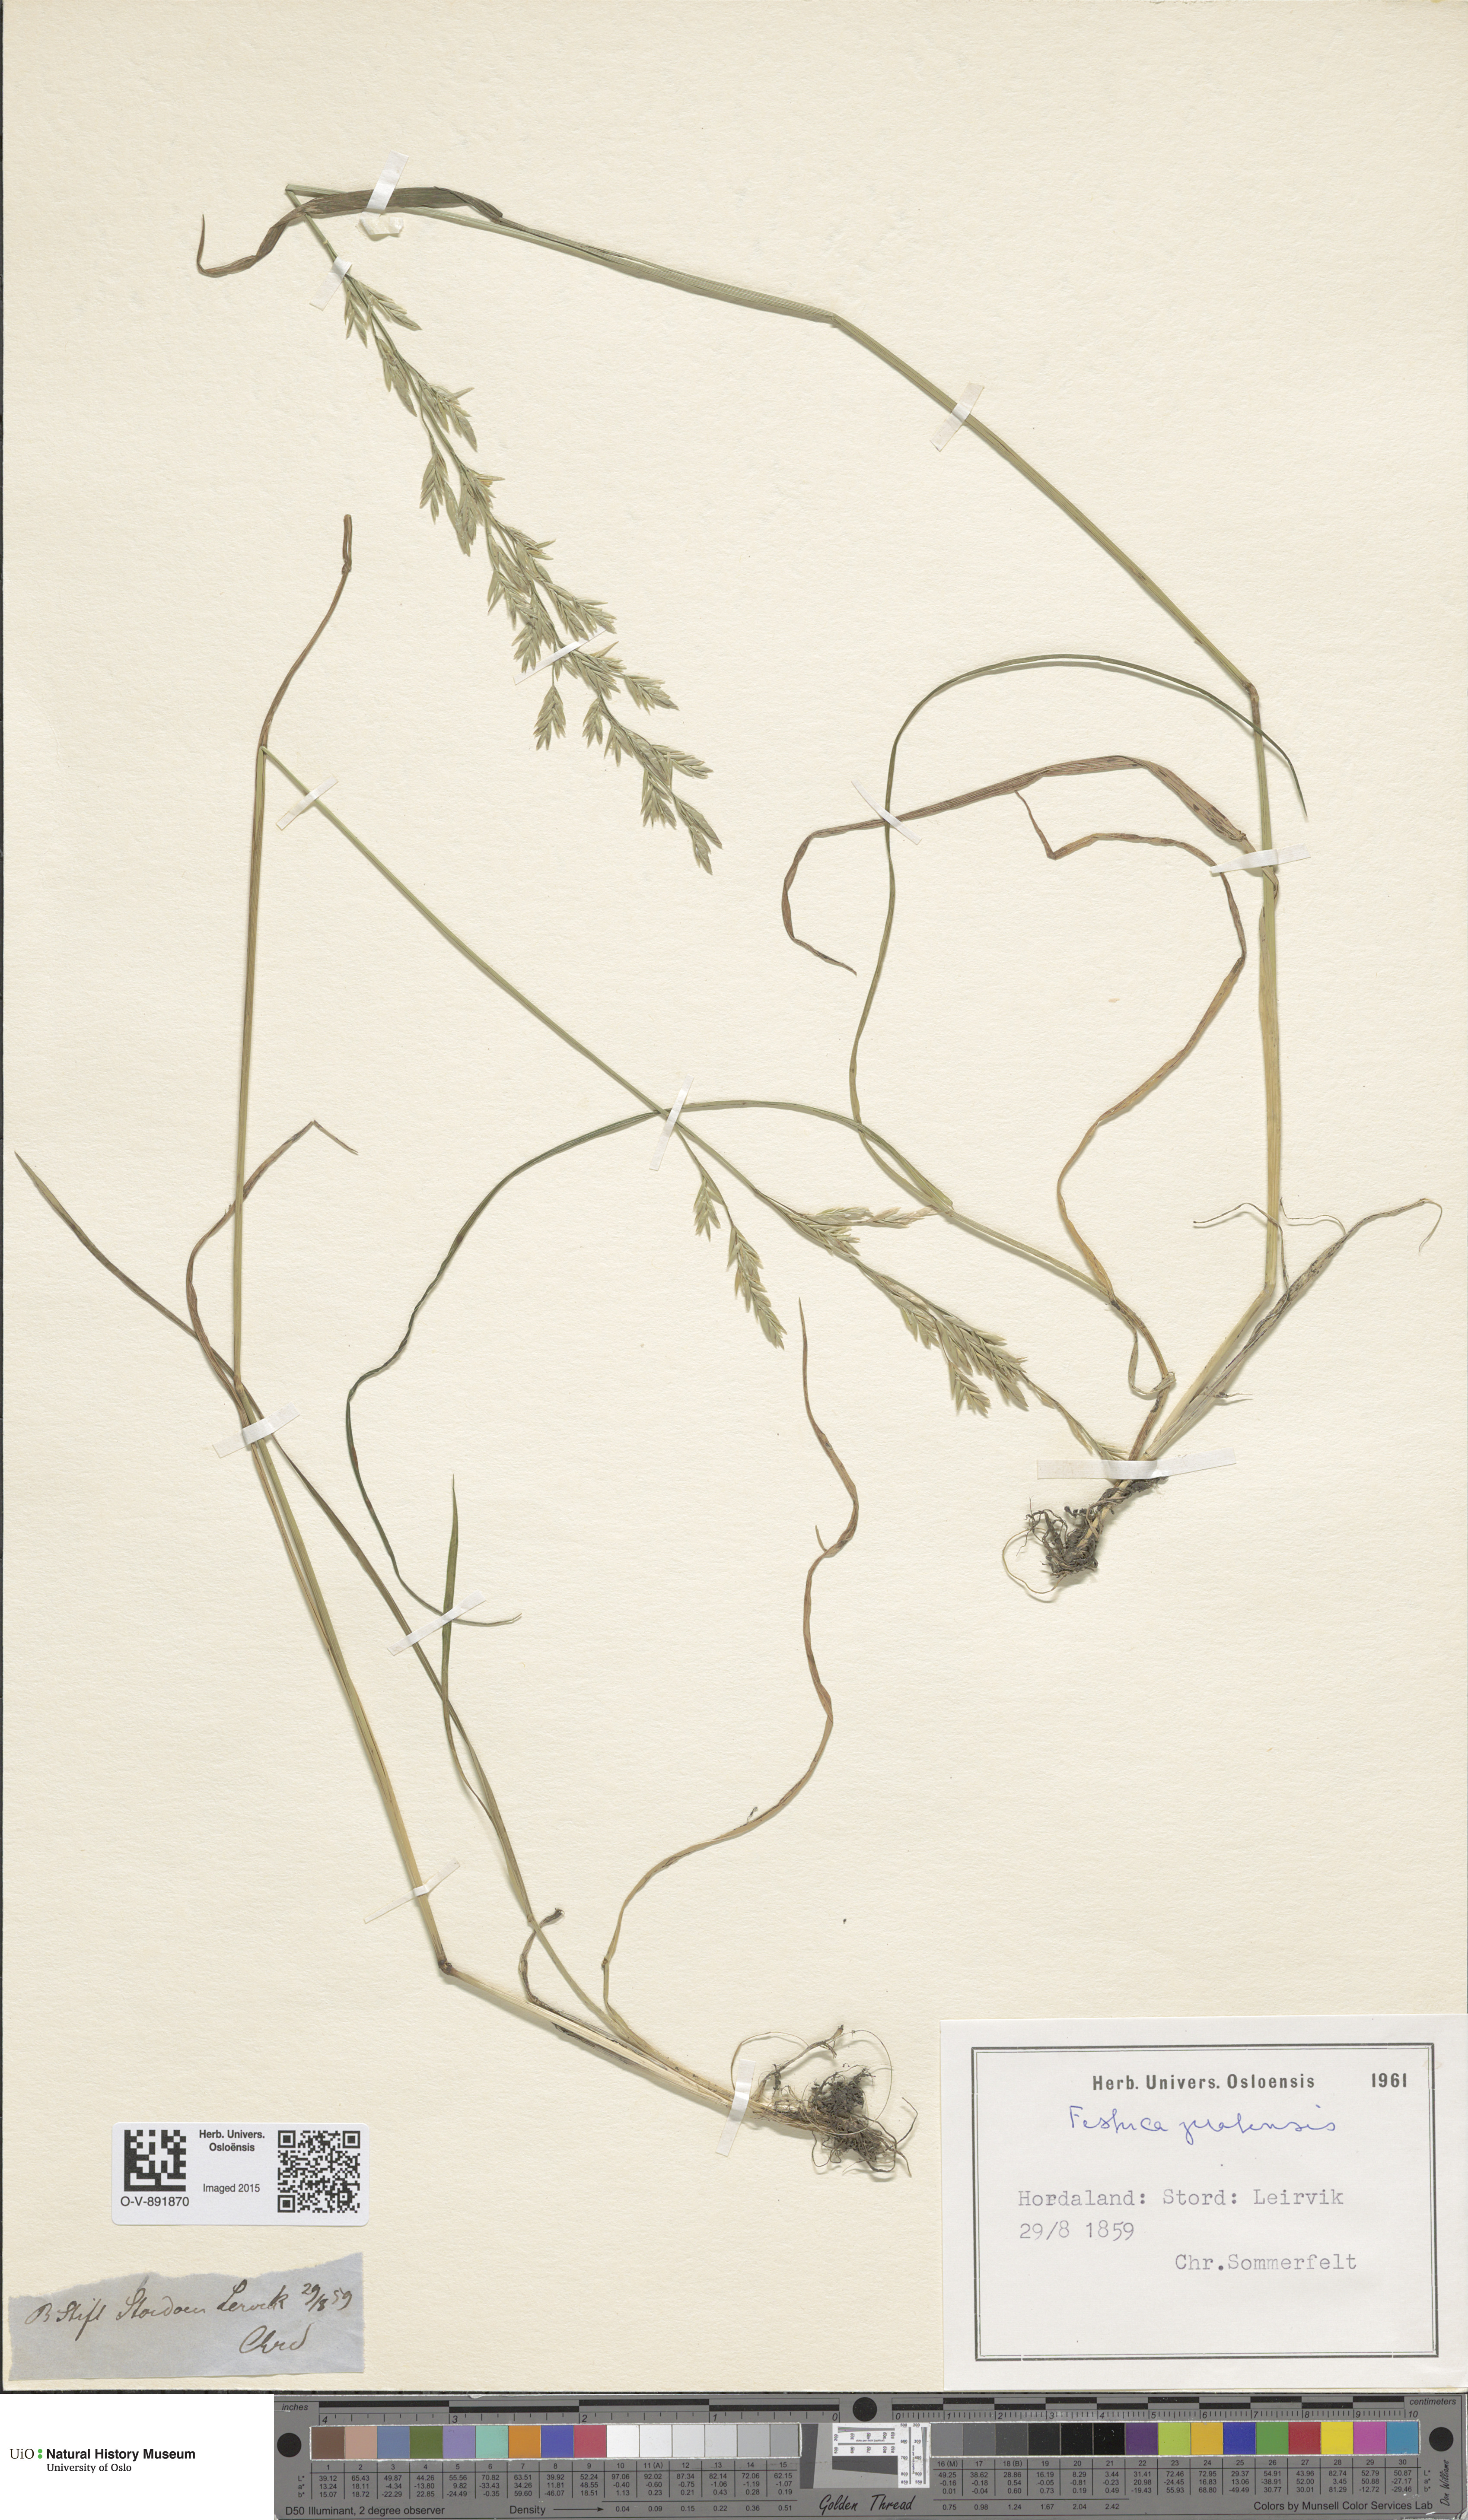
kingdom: Plantae
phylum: Tracheophyta
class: Liliopsida
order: Poales
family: Poaceae
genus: Lolium
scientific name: Lolium pratense
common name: Dover grass
